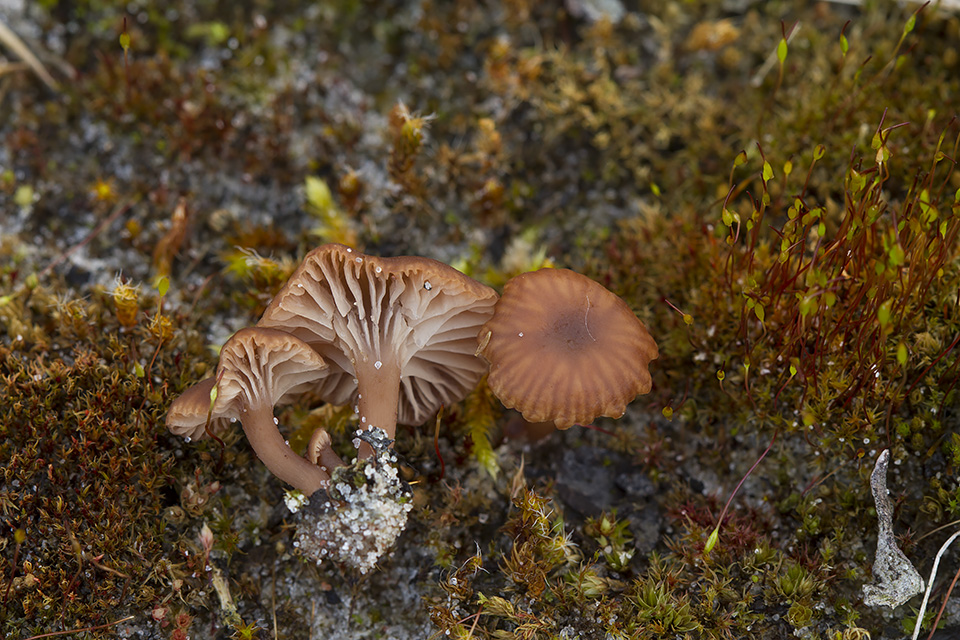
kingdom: Fungi
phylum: Basidiomycota
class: Agaricomycetes
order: Agaricales
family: Tricholomataceae
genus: Omphalina
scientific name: Omphalina pyxidata
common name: rødbrun navlehat
